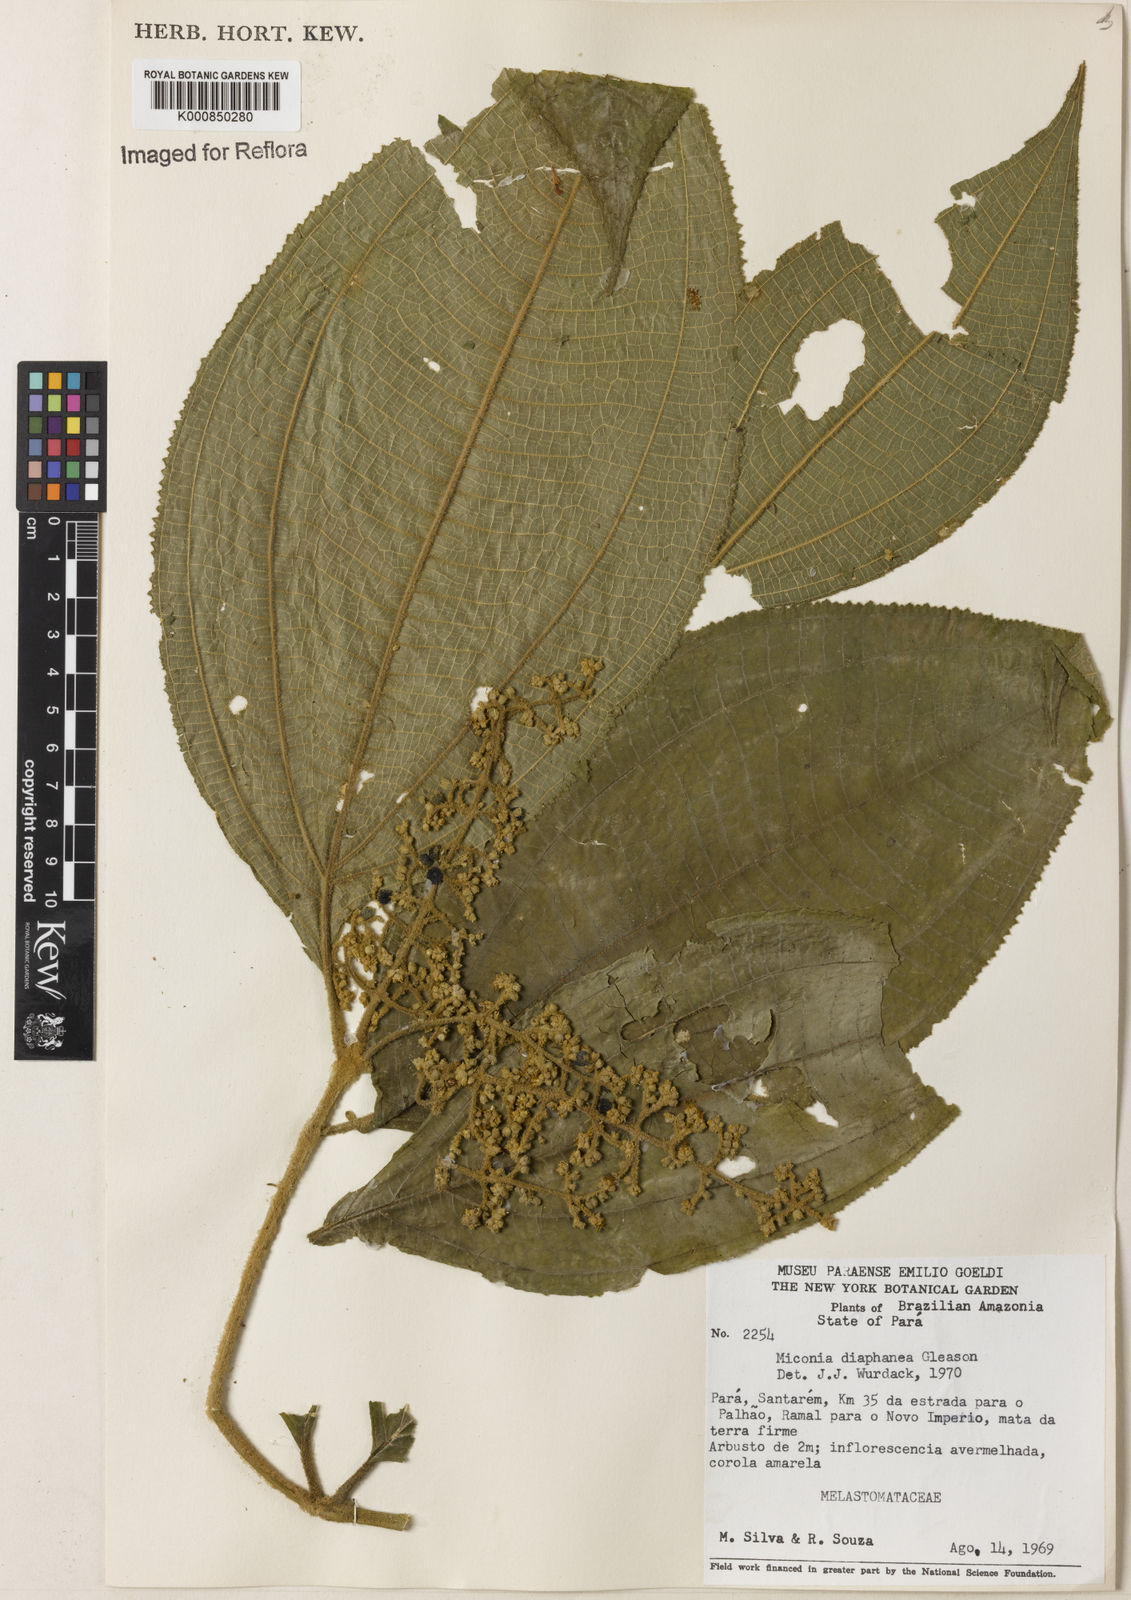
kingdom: Plantae
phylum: Tracheophyta
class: Magnoliopsida
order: Myrtales
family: Melastomataceae
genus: Miconia
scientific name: Miconia diaphanea
